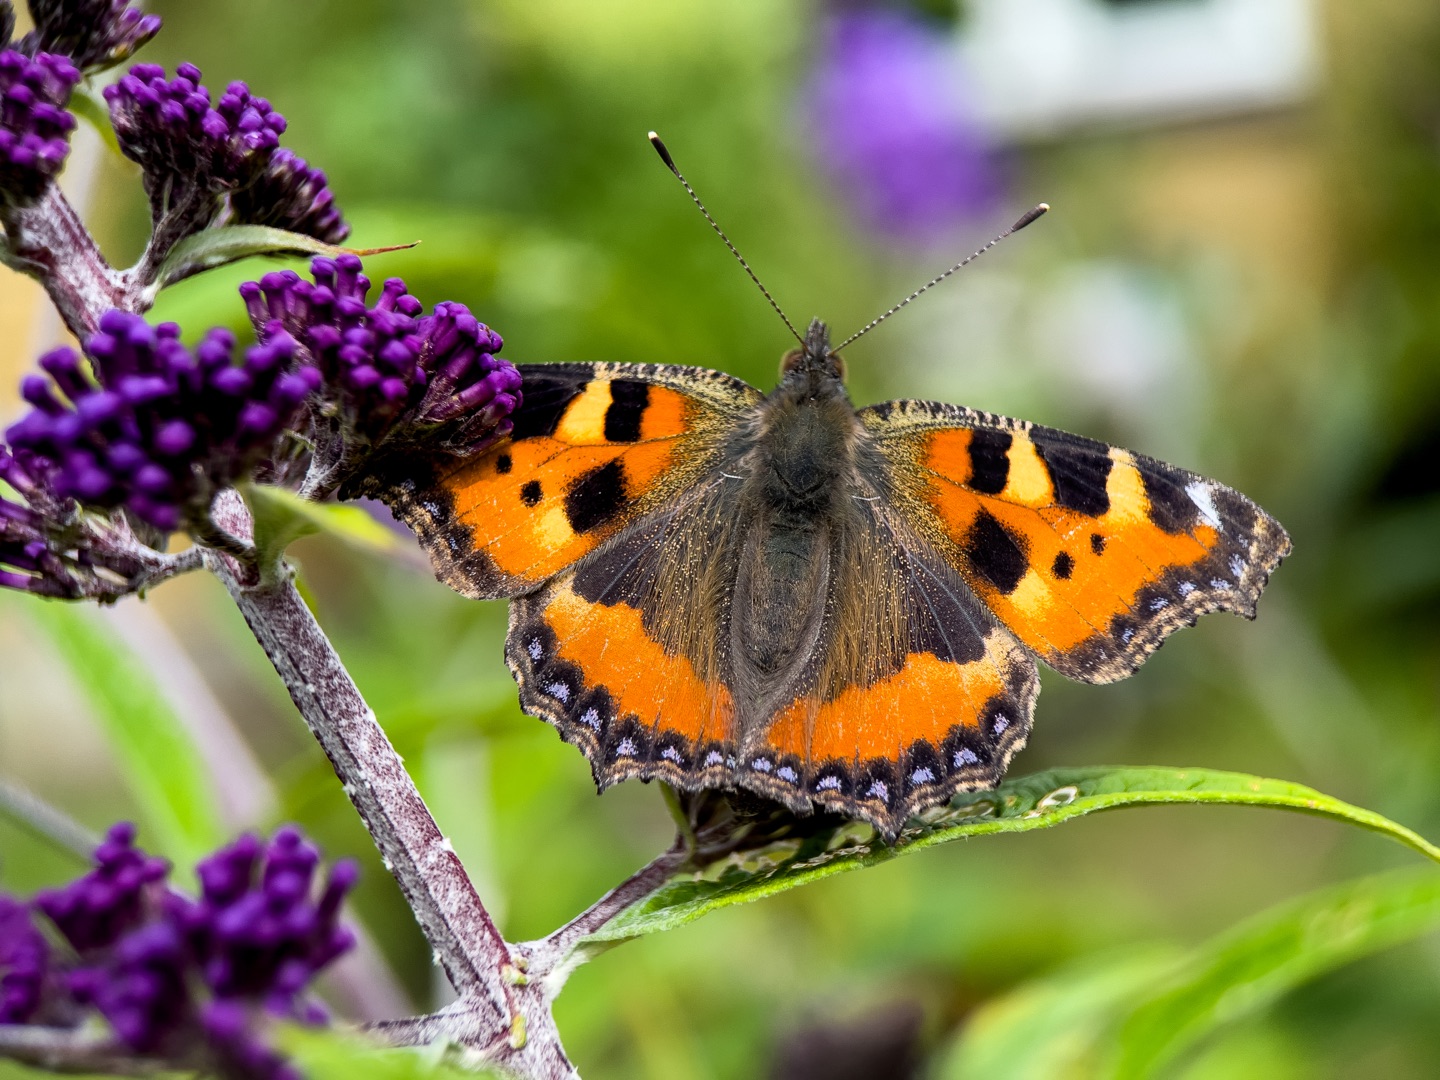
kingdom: Animalia
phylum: Arthropoda
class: Insecta
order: Lepidoptera
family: Nymphalidae
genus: Aglais
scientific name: Aglais urticae
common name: Nældens takvinge
